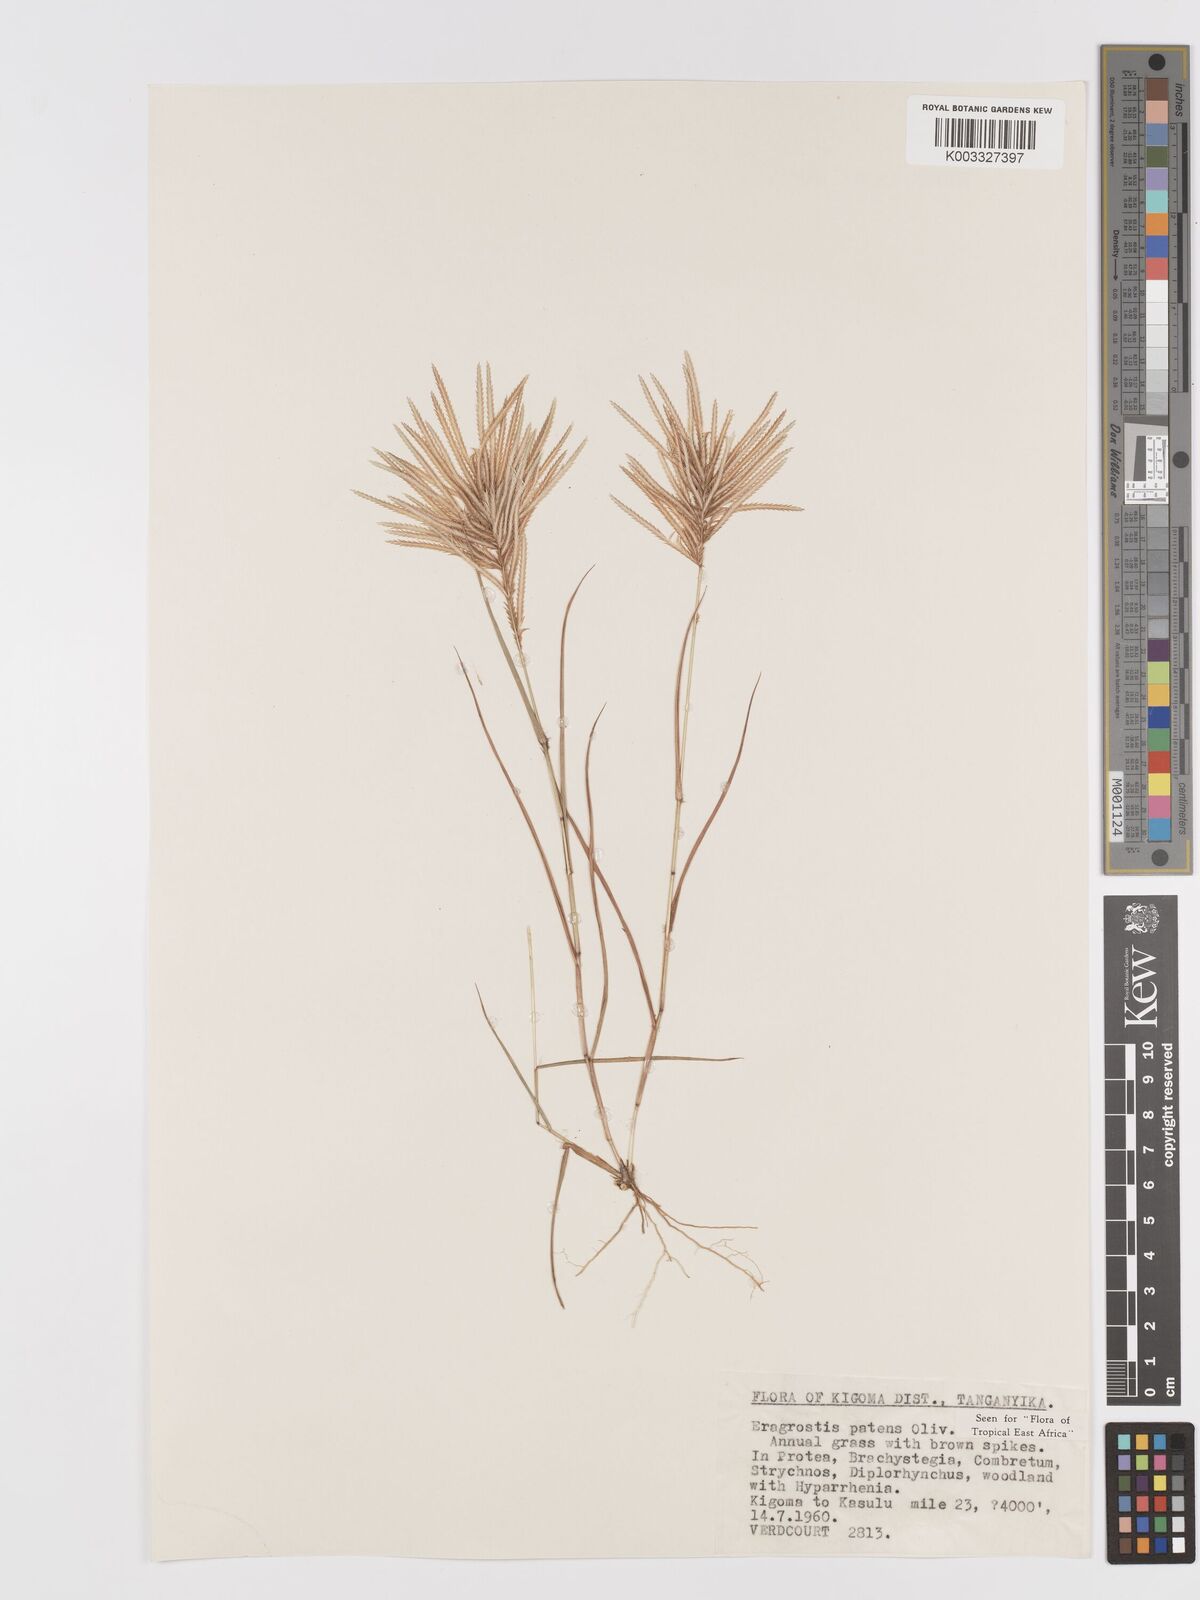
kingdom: Plantae
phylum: Tracheophyta
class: Liliopsida
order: Poales
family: Poaceae
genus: Eragrostis
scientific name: Eragrostis patens
